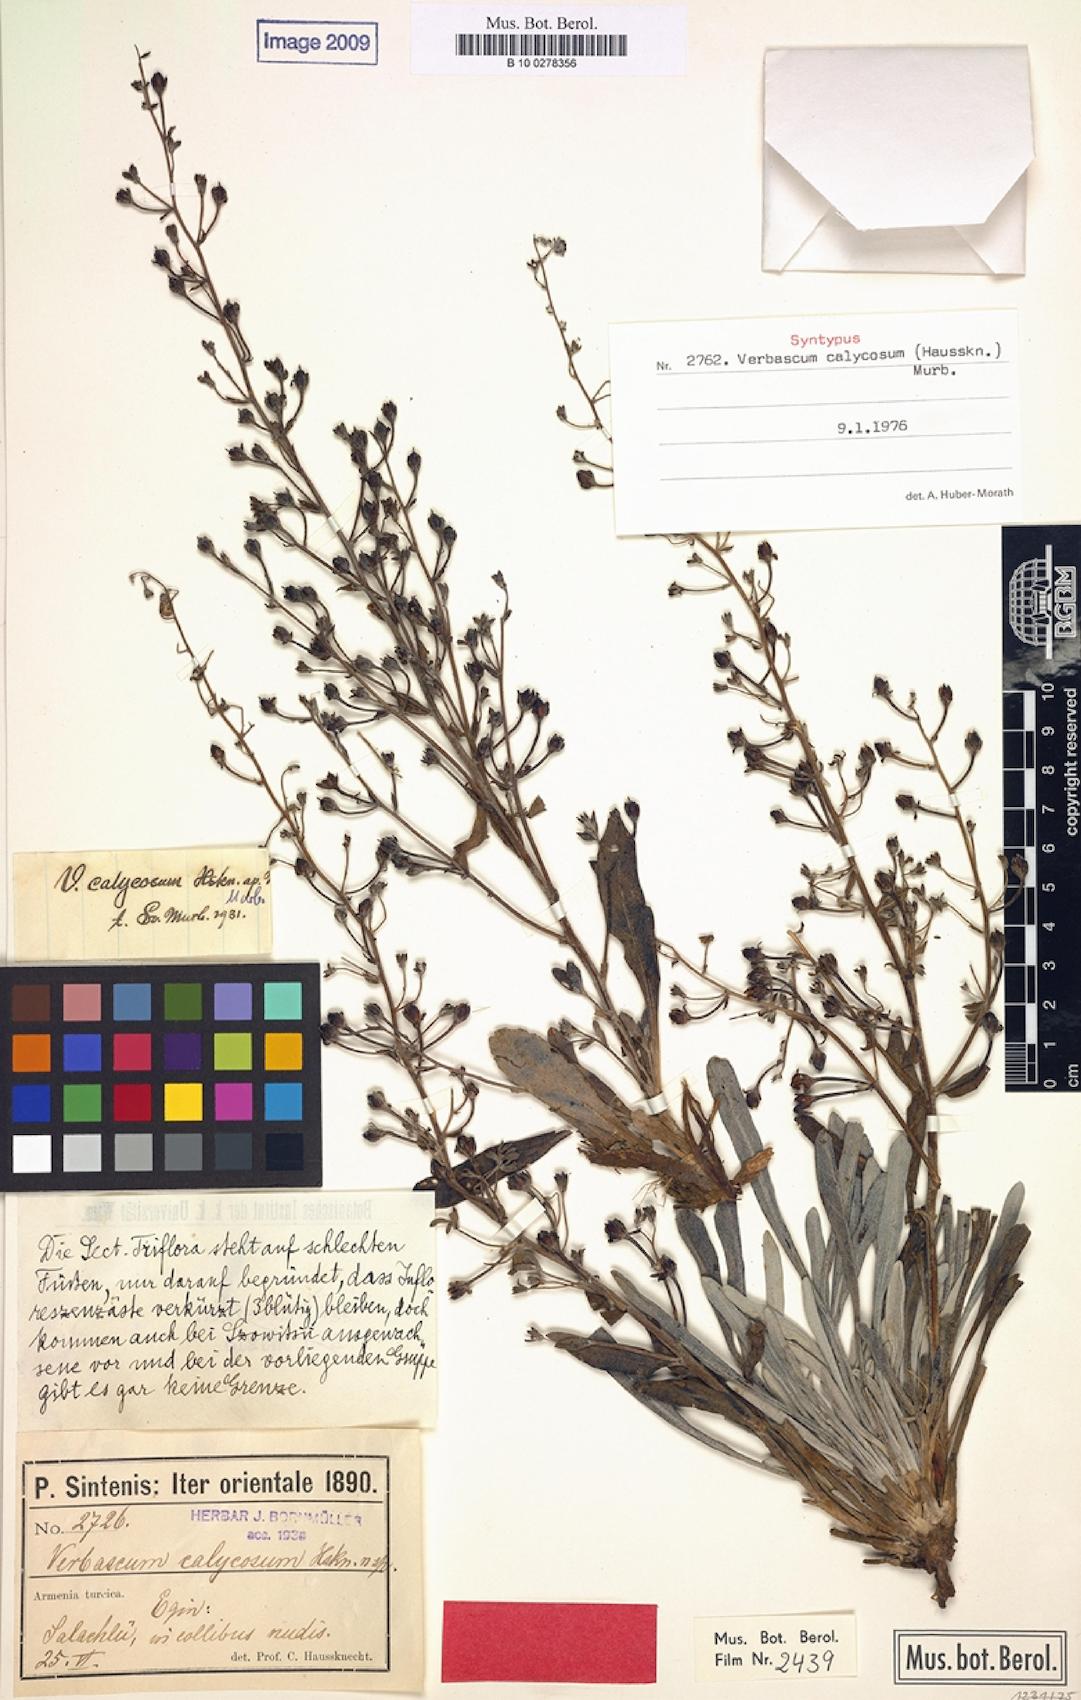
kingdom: Plantae
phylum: Tracheophyta
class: Magnoliopsida
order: Lamiales
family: Scrophulariaceae
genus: Verbascum
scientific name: Verbascum calycosum
